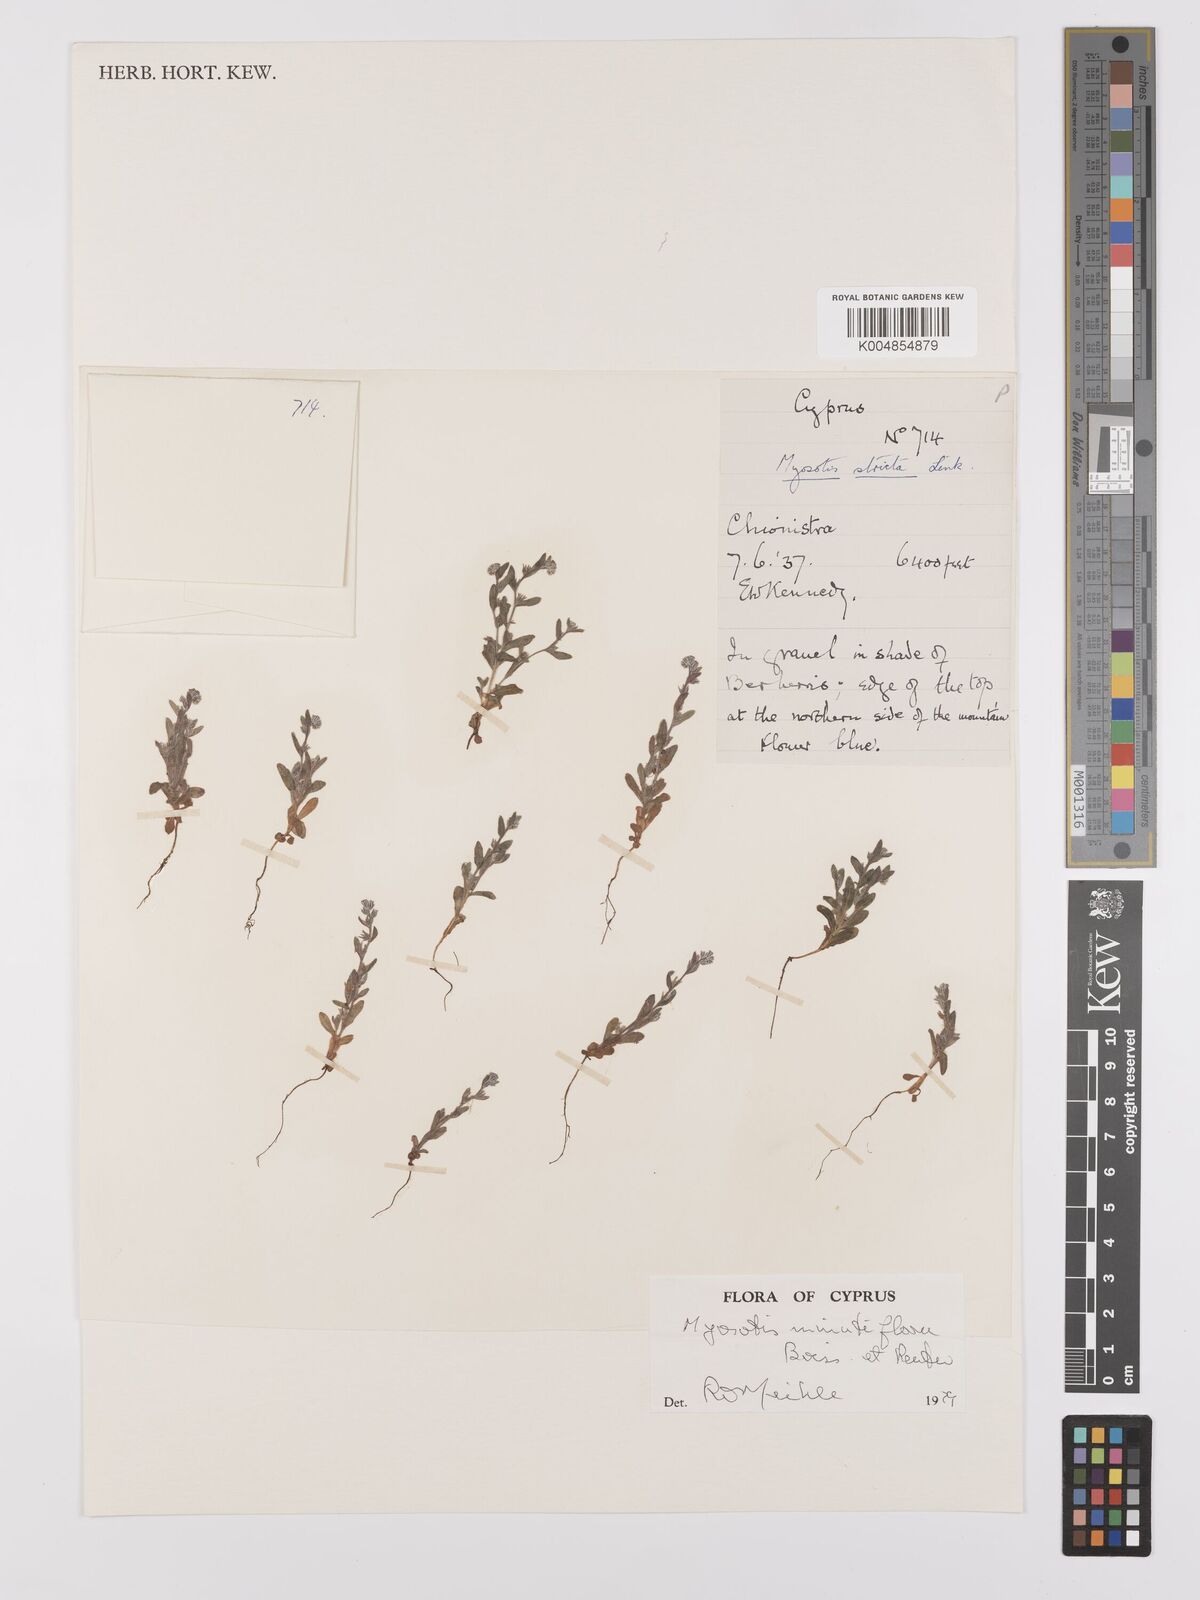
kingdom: Plantae
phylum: Tracheophyta
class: Magnoliopsida
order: Boraginales
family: Boraginaceae
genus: Myosotis
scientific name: Myosotis minutiflora
